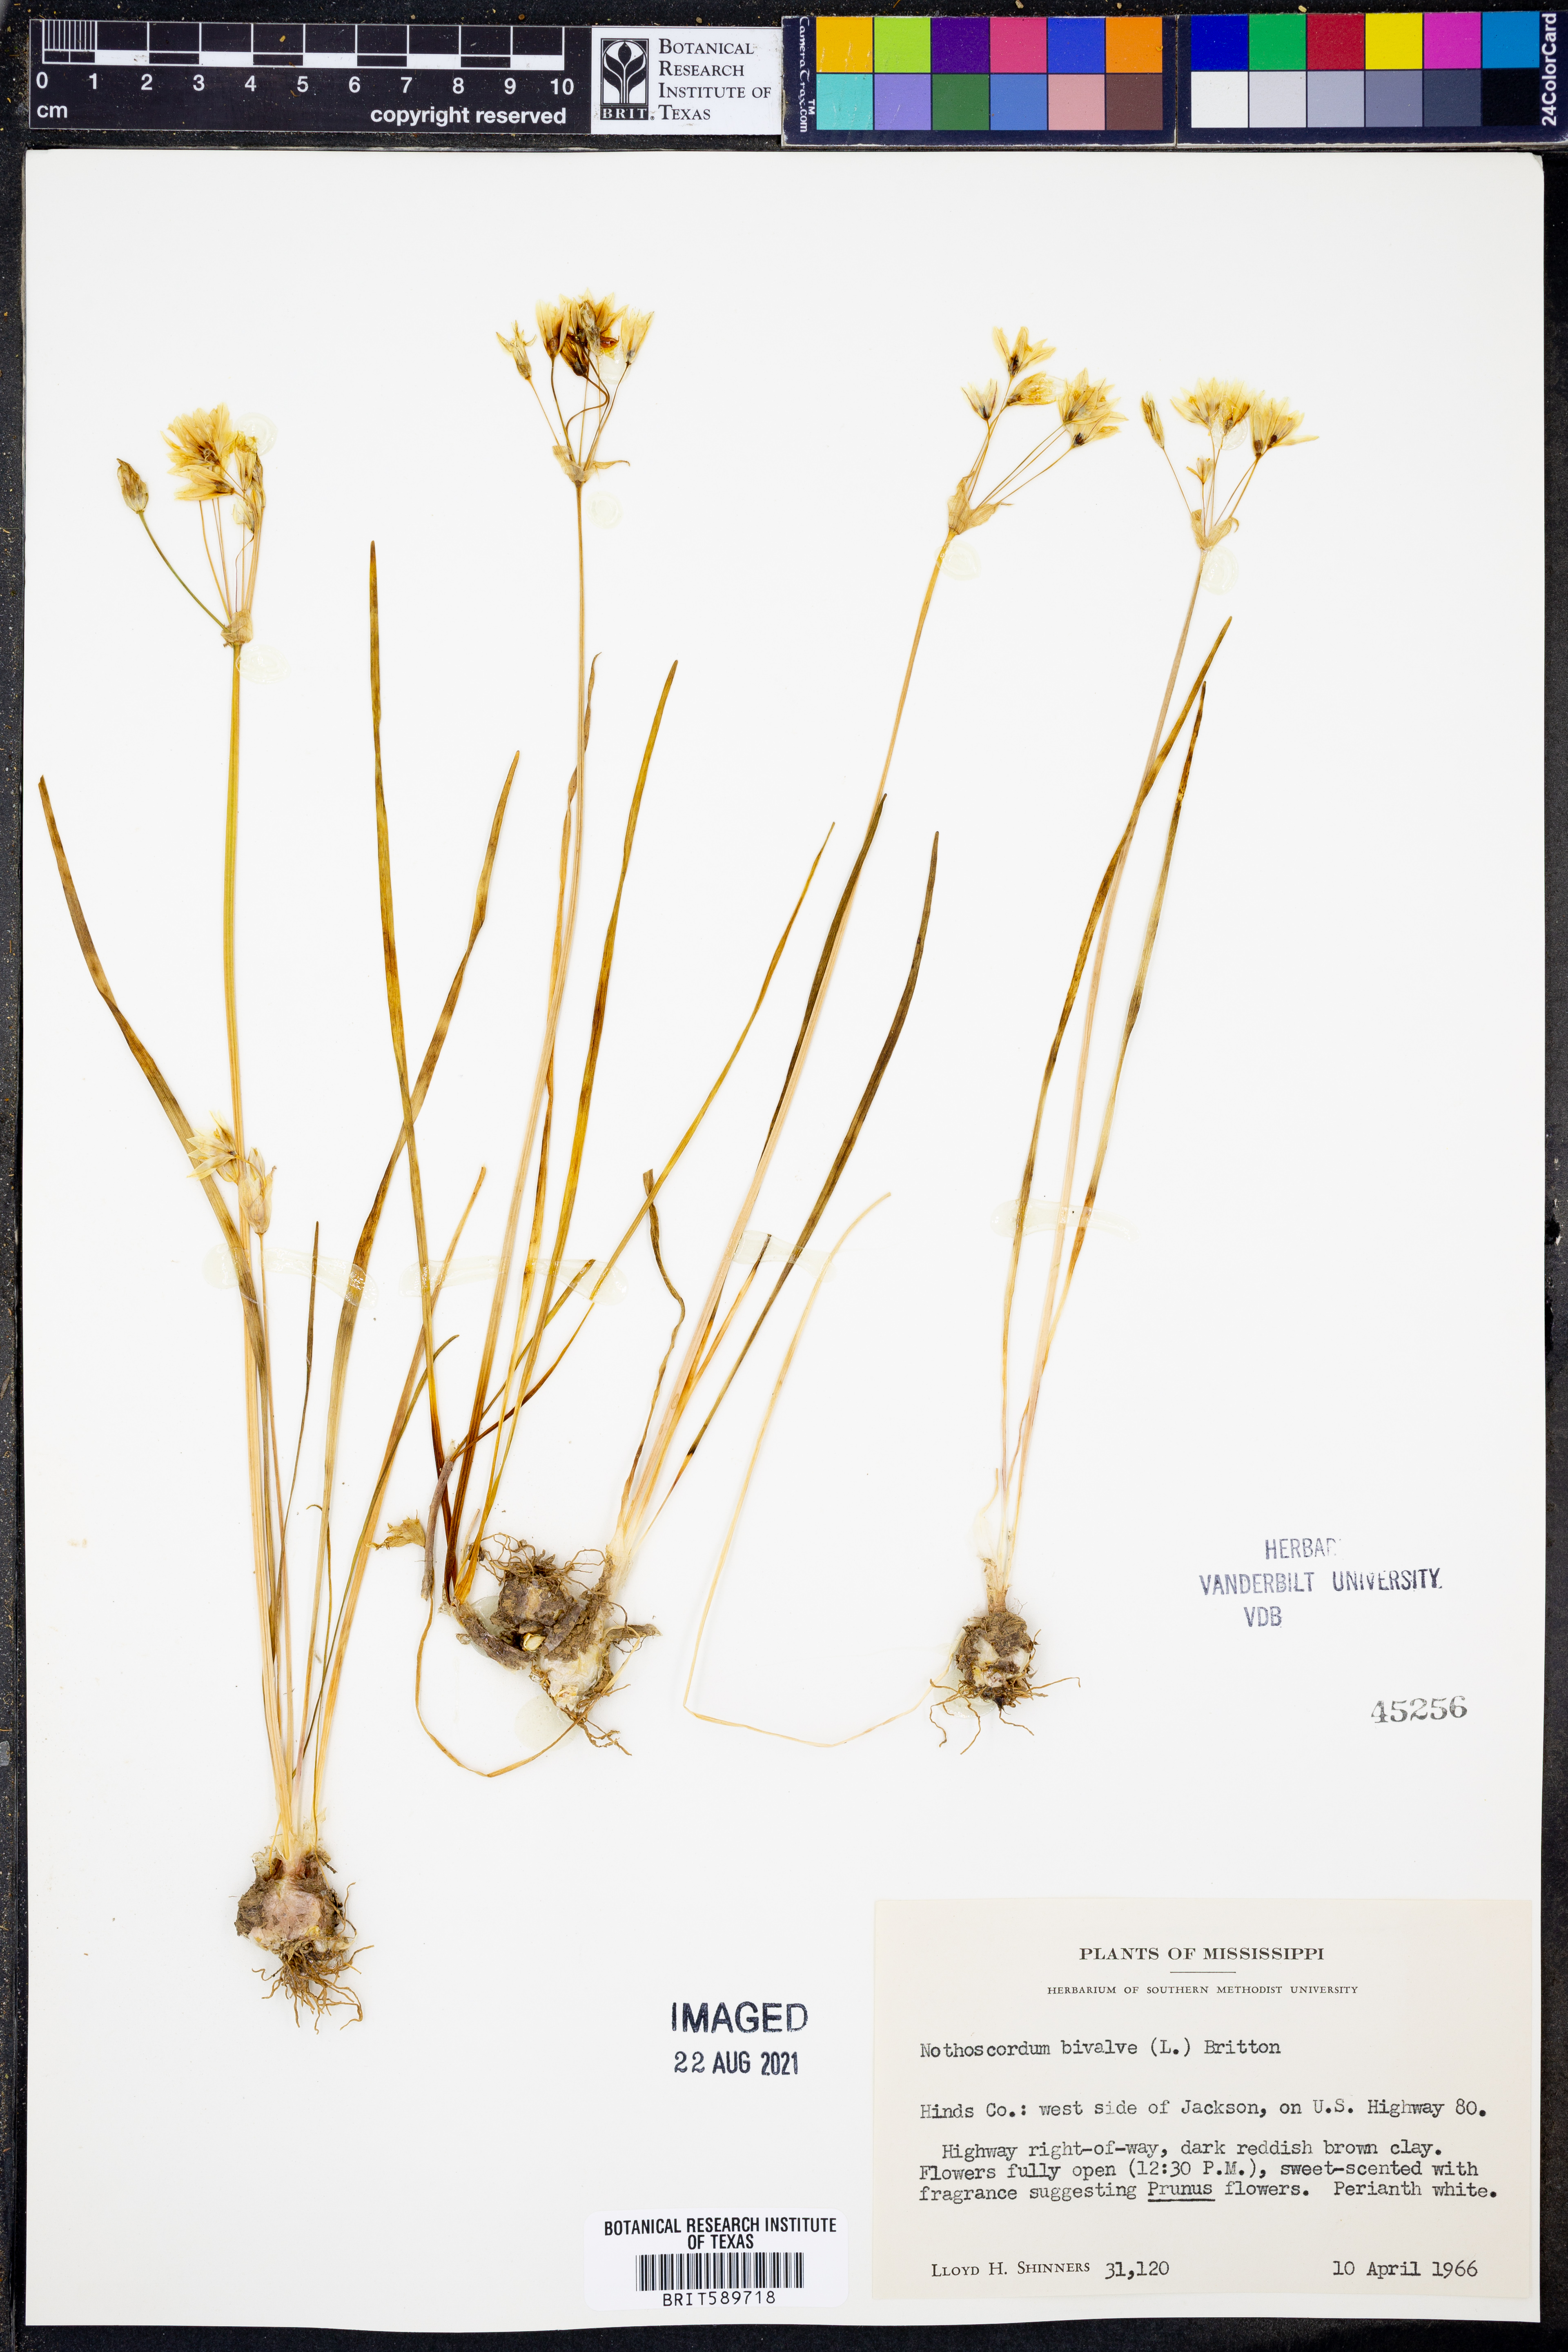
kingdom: Plantae
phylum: Tracheophyta
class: Liliopsida
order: Asparagales
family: Amaryllidaceae
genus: Nothoscordum
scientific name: Nothoscordum bivalve
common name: Crow-poison
